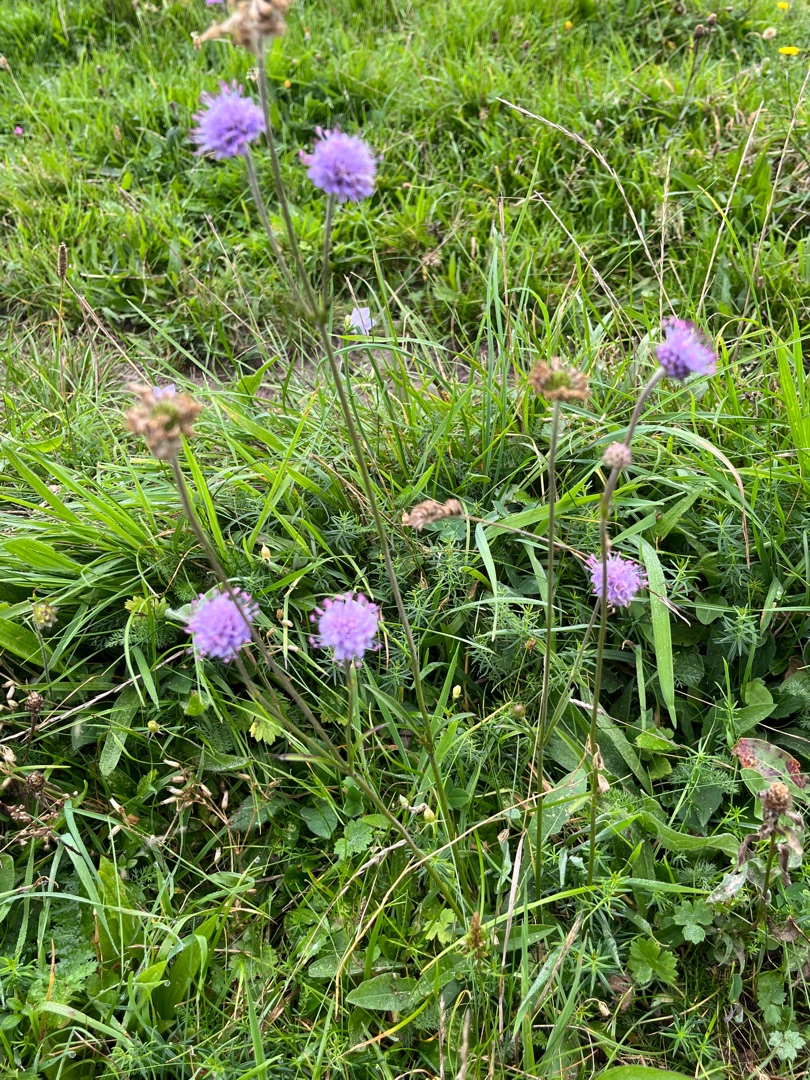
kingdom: Plantae
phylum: Tracheophyta
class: Magnoliopsida
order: Dipsacales
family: Caprifoliaceae
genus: Succisa
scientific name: Succisa pratensis
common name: Djævelsbid
